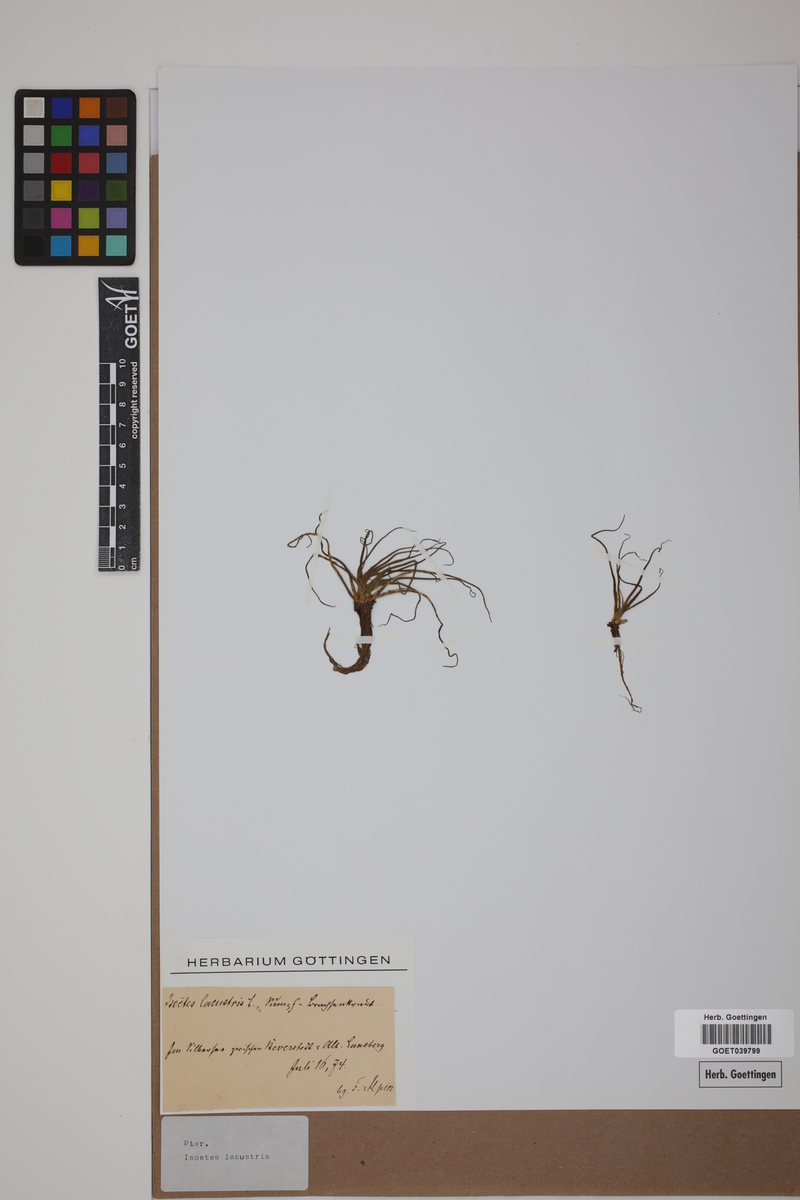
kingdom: Plantae
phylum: Tracheophyta
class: Lycopodiopsida
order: Isoetales
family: Isoetaceae
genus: Isoetes
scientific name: Isoetes lacustris
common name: Common quillwort
